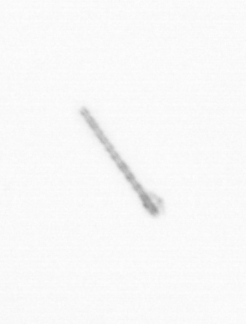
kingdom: Chromista
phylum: Ochrophyta
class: Bacillariophyceae
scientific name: Bacillariophyceae
